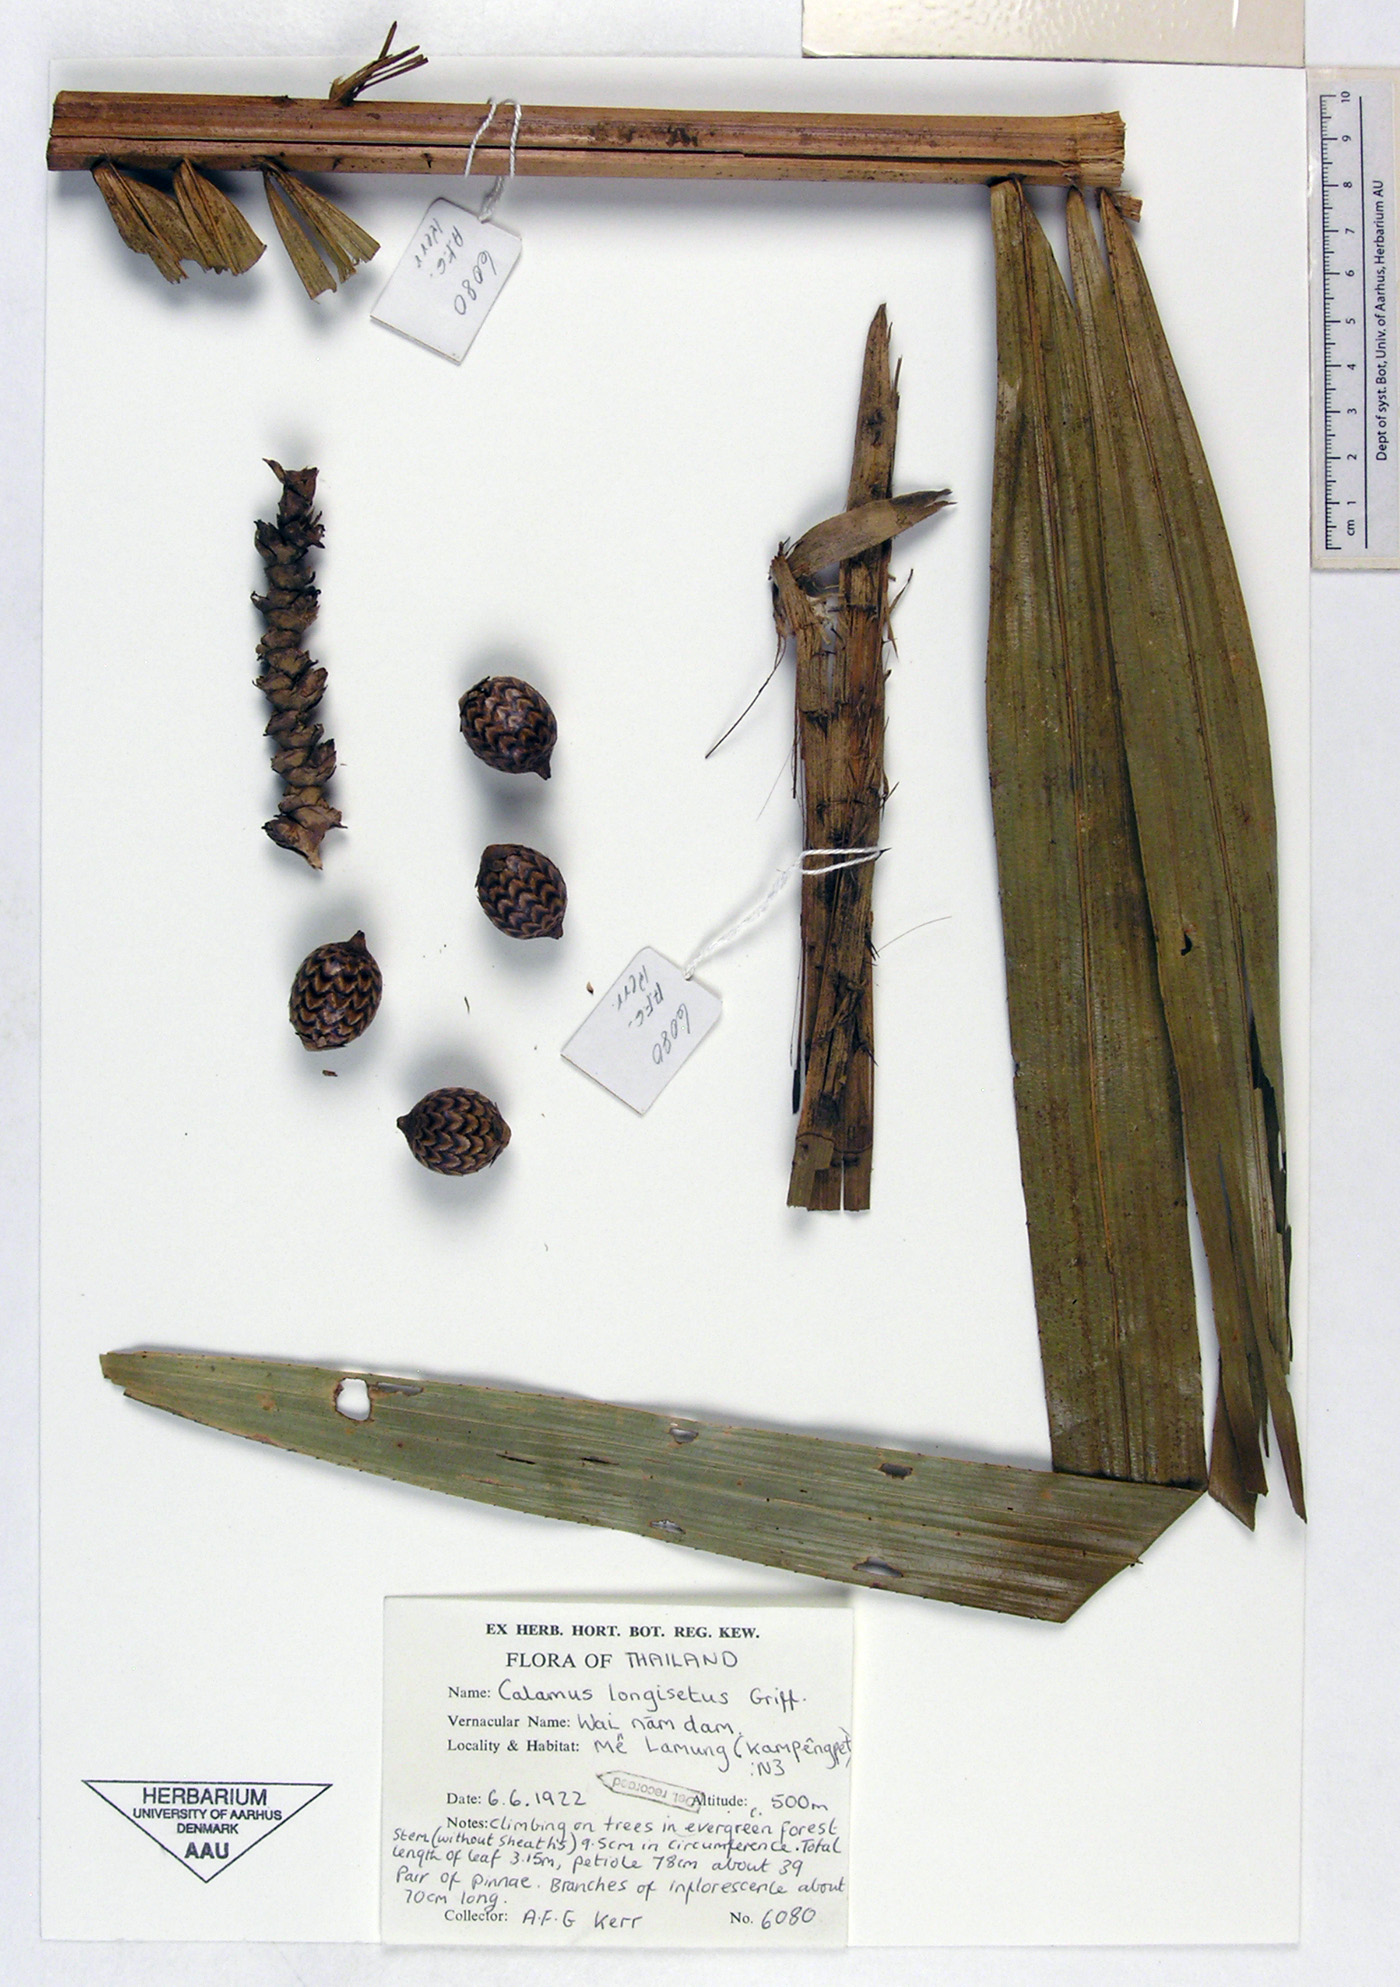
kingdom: Plantae
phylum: Tracheophyta
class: Liliopsida
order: Arecales
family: Arecaceae
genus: Calamus
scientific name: Calamus longisetus
